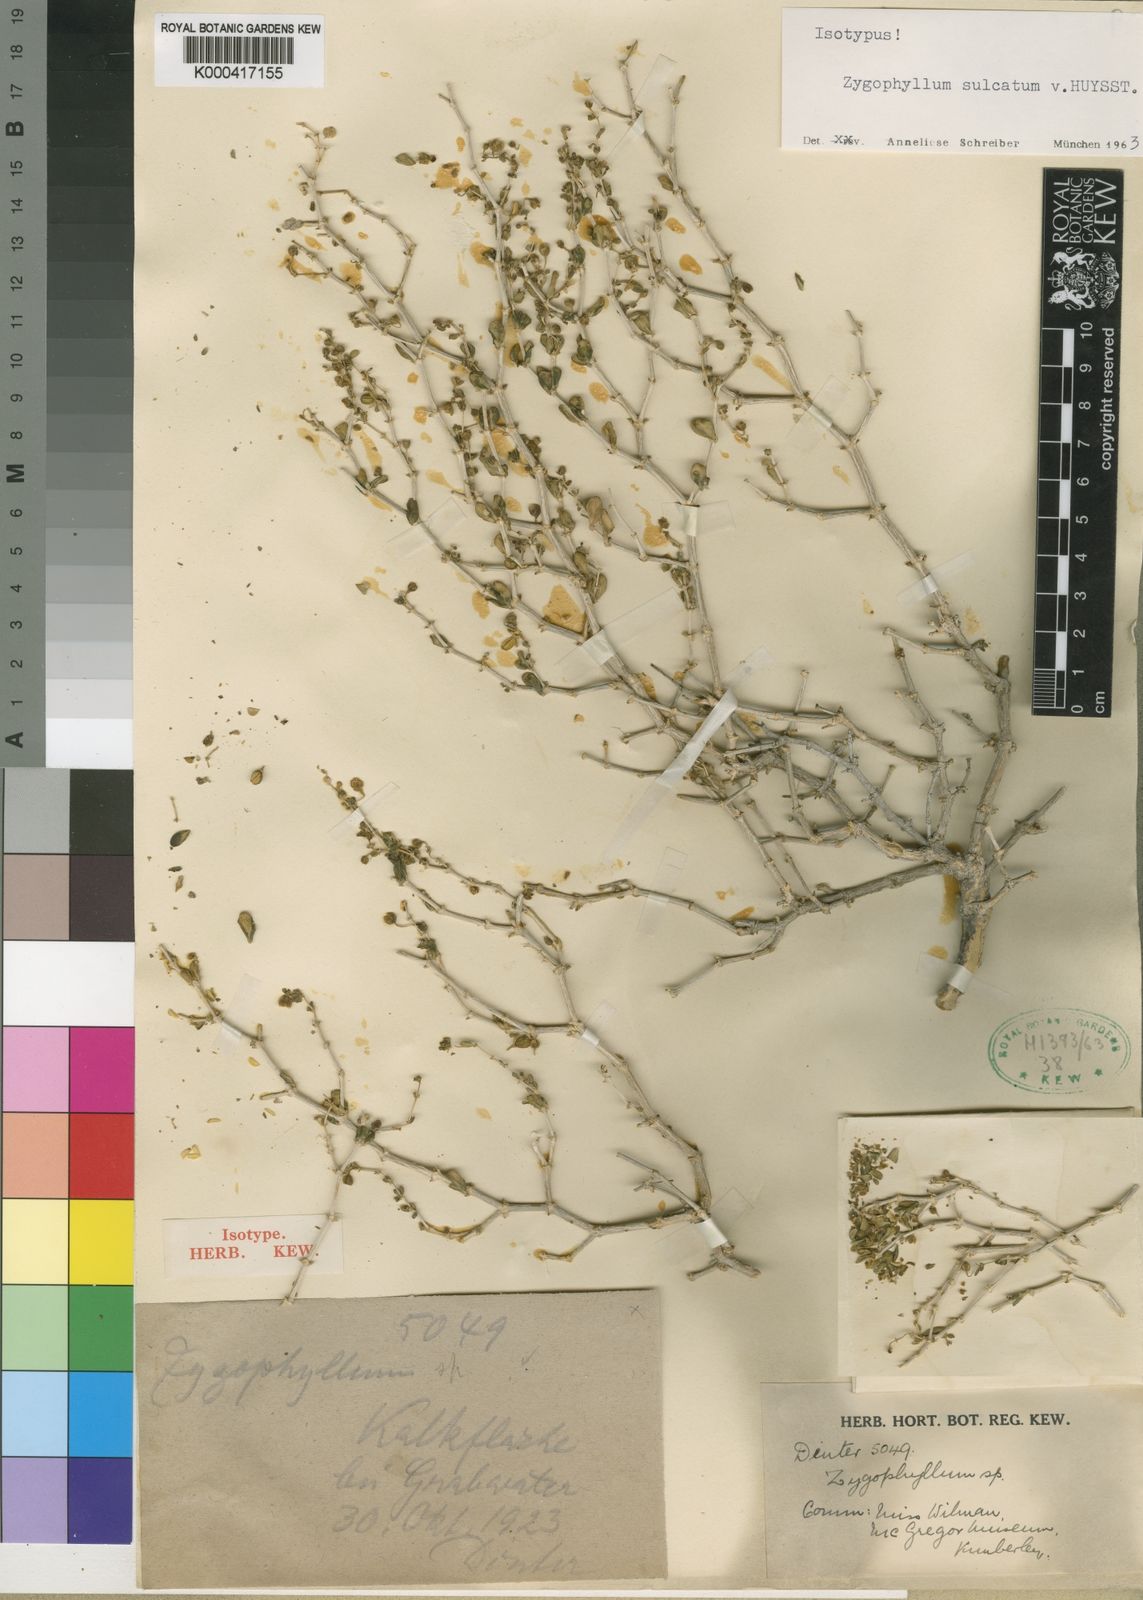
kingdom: Plantae
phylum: Tracheophyta
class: Magnoliopsida
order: Zygophyllales
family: Zygophyllaceae
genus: Roepera
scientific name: Roepera leucoclada
